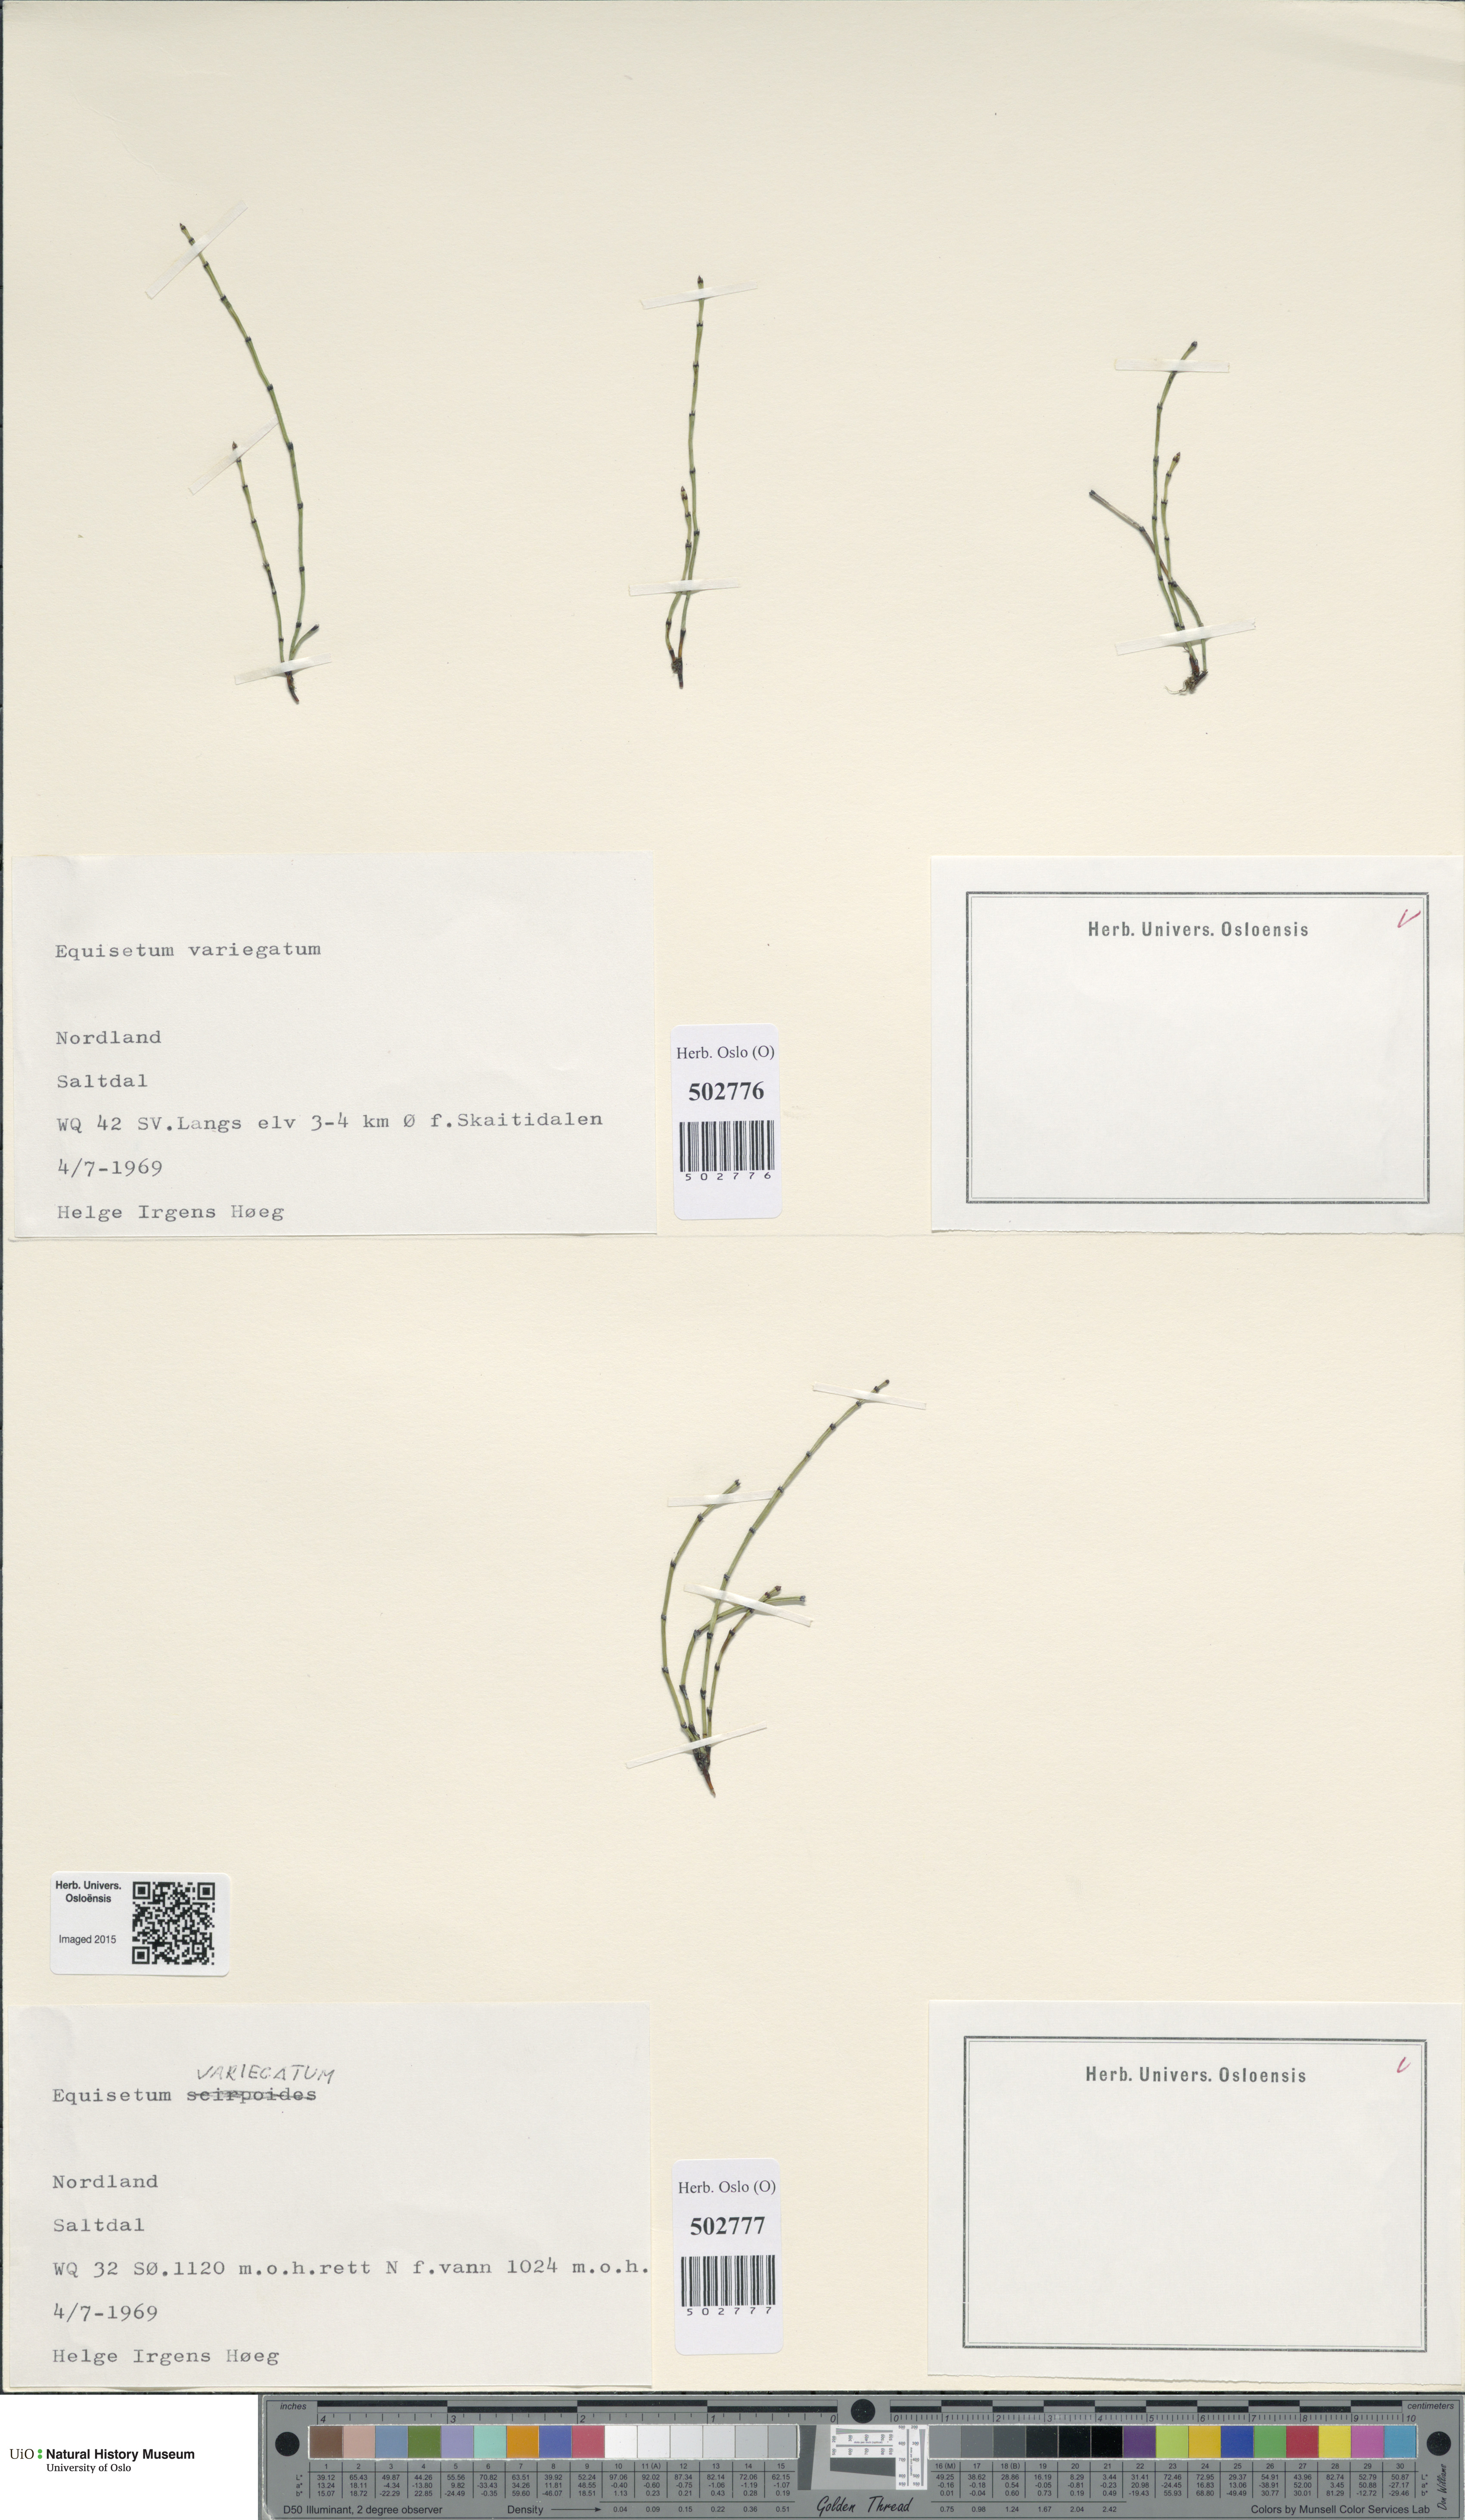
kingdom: Plantae
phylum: Tracheophyta
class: Polypodiopsida
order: Equisetales
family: Equisetaceae
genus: Equisetum
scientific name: Equisetum variegatum
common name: Variegated horsetail
